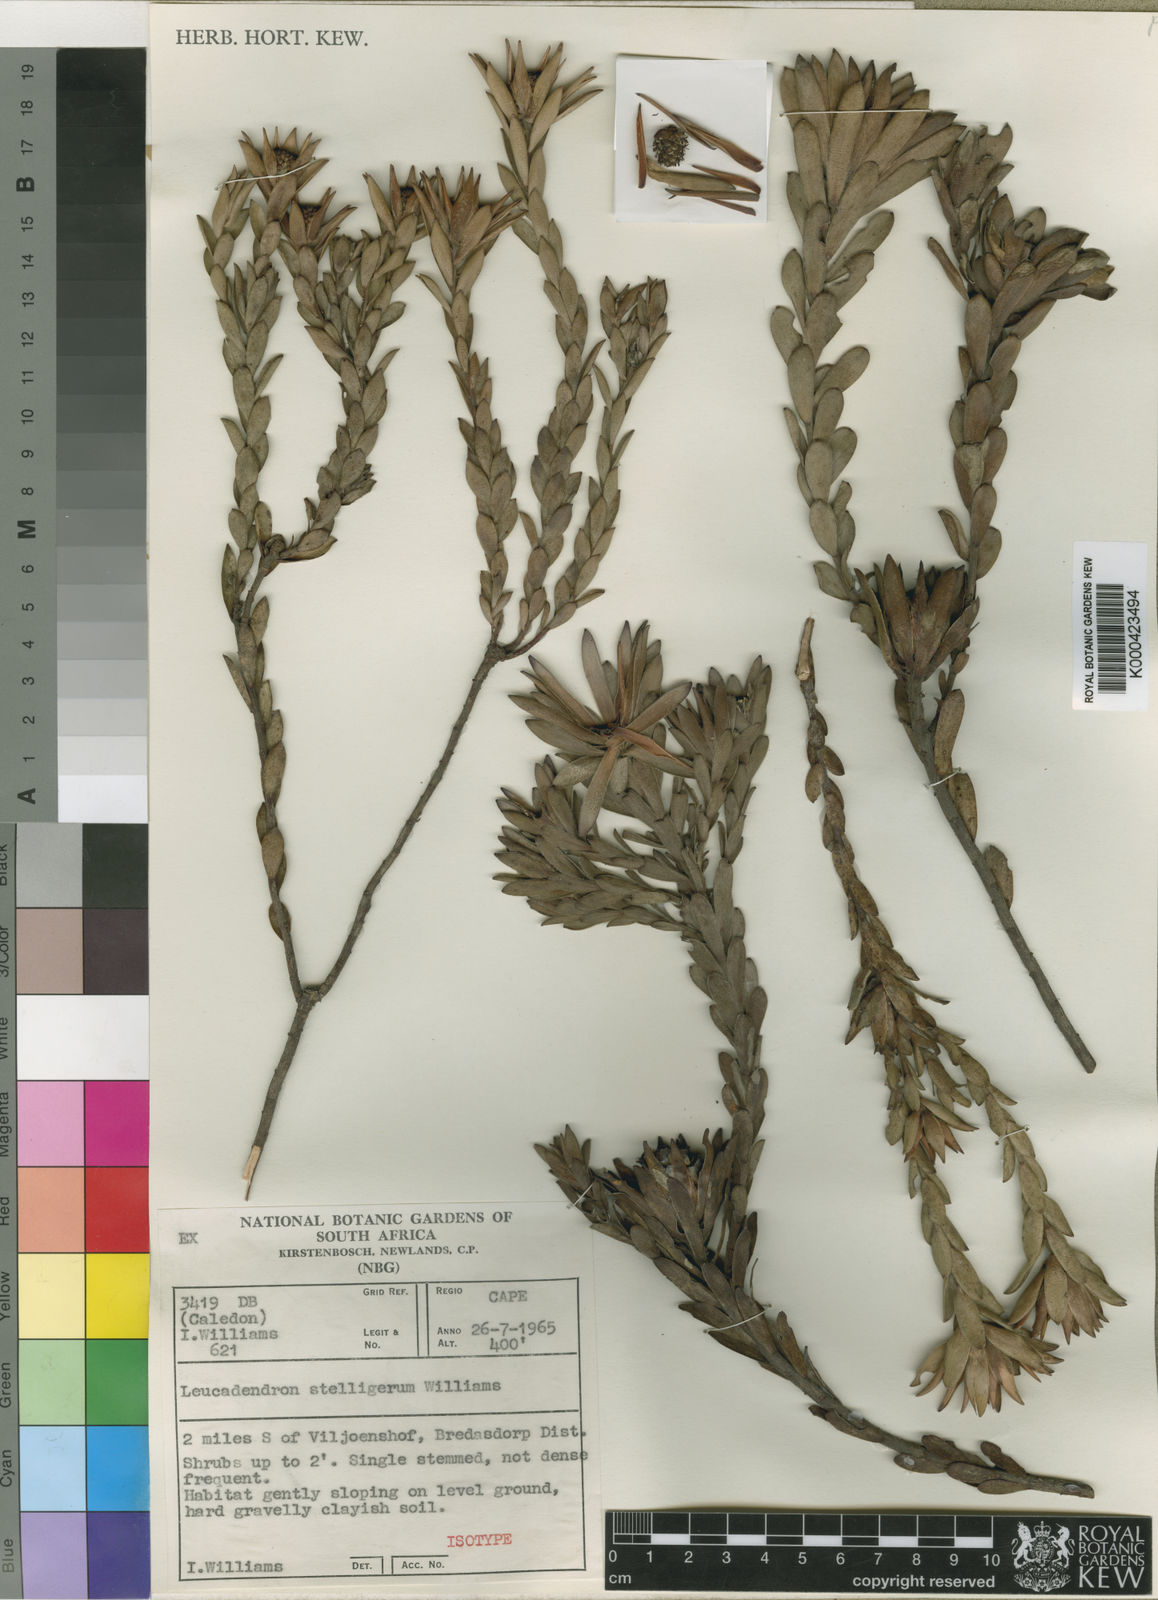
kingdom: Plantae
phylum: Tracheophyta
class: Magnoliopsida
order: Proteales
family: Proteaceae
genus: Leucadendron
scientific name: Leucadendron stelligerum
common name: Agulhas conebush
